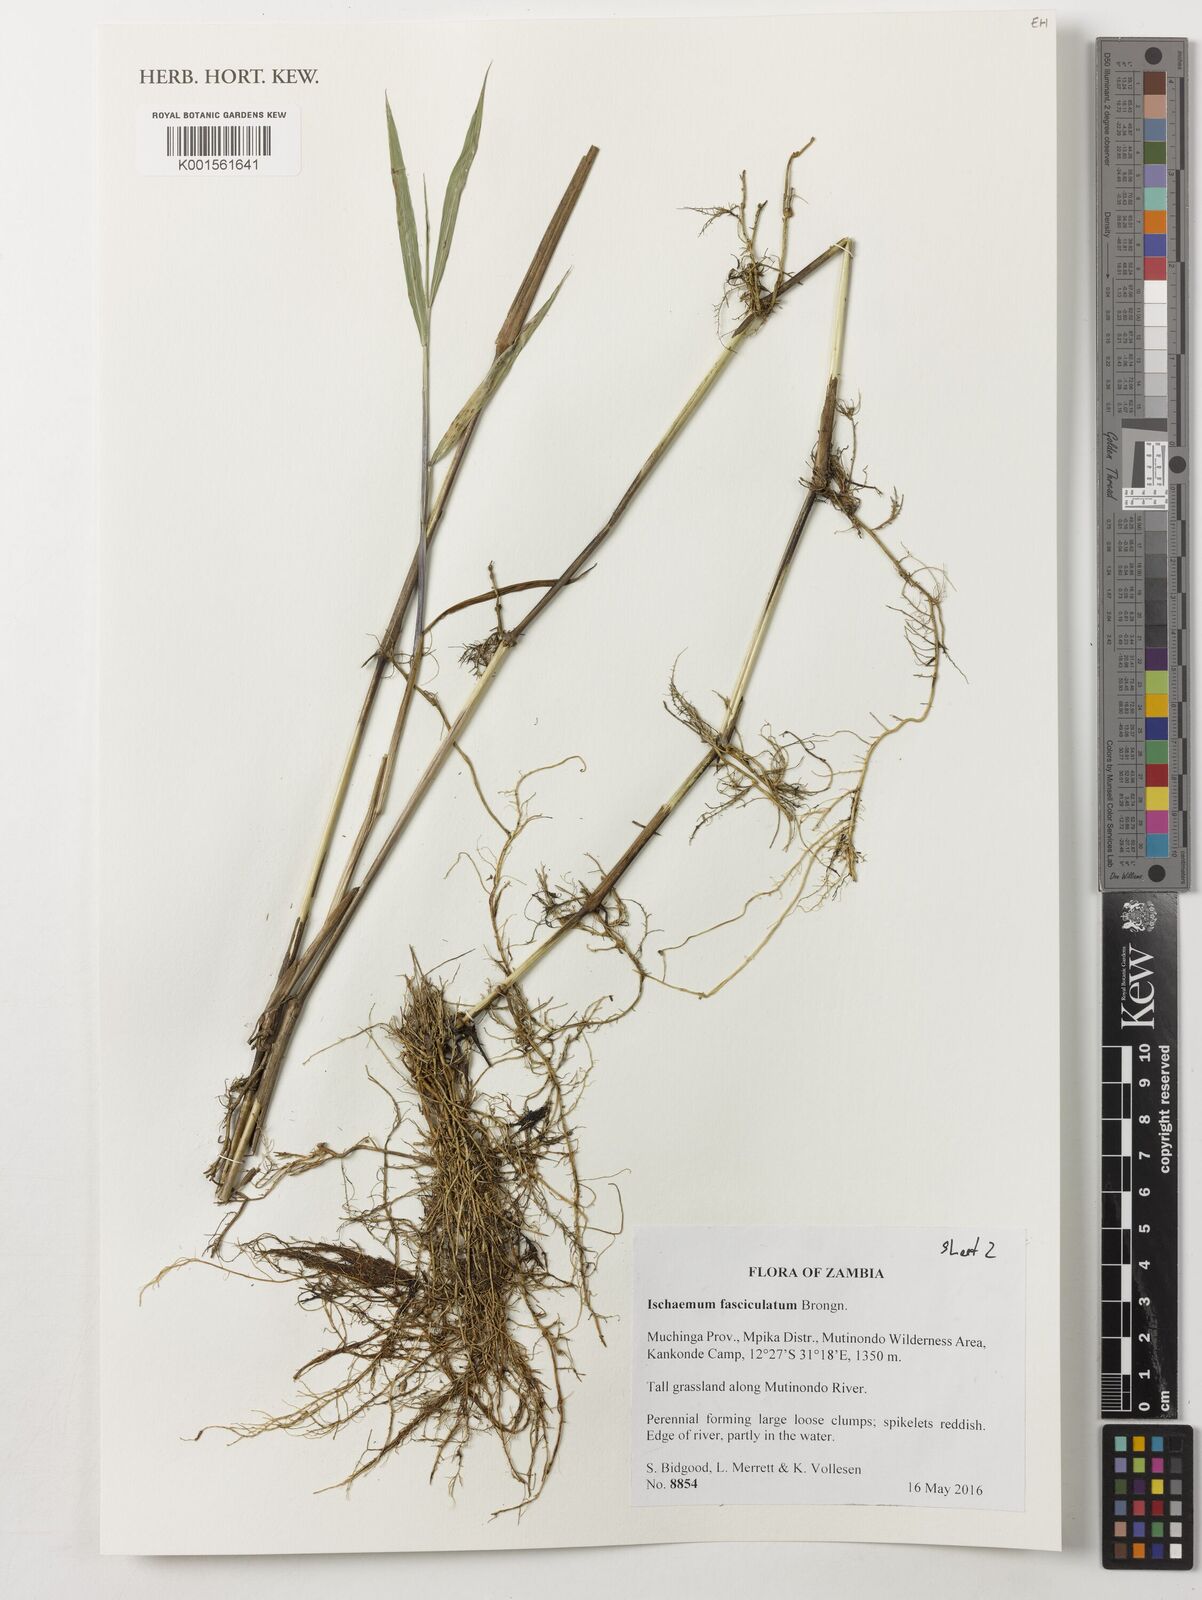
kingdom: Plantae
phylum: Tracheophyta
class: Liliopsida
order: Poales
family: Poaceae
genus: Ischaemum
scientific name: Ischaemum polystachyum
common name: Paddle grass
